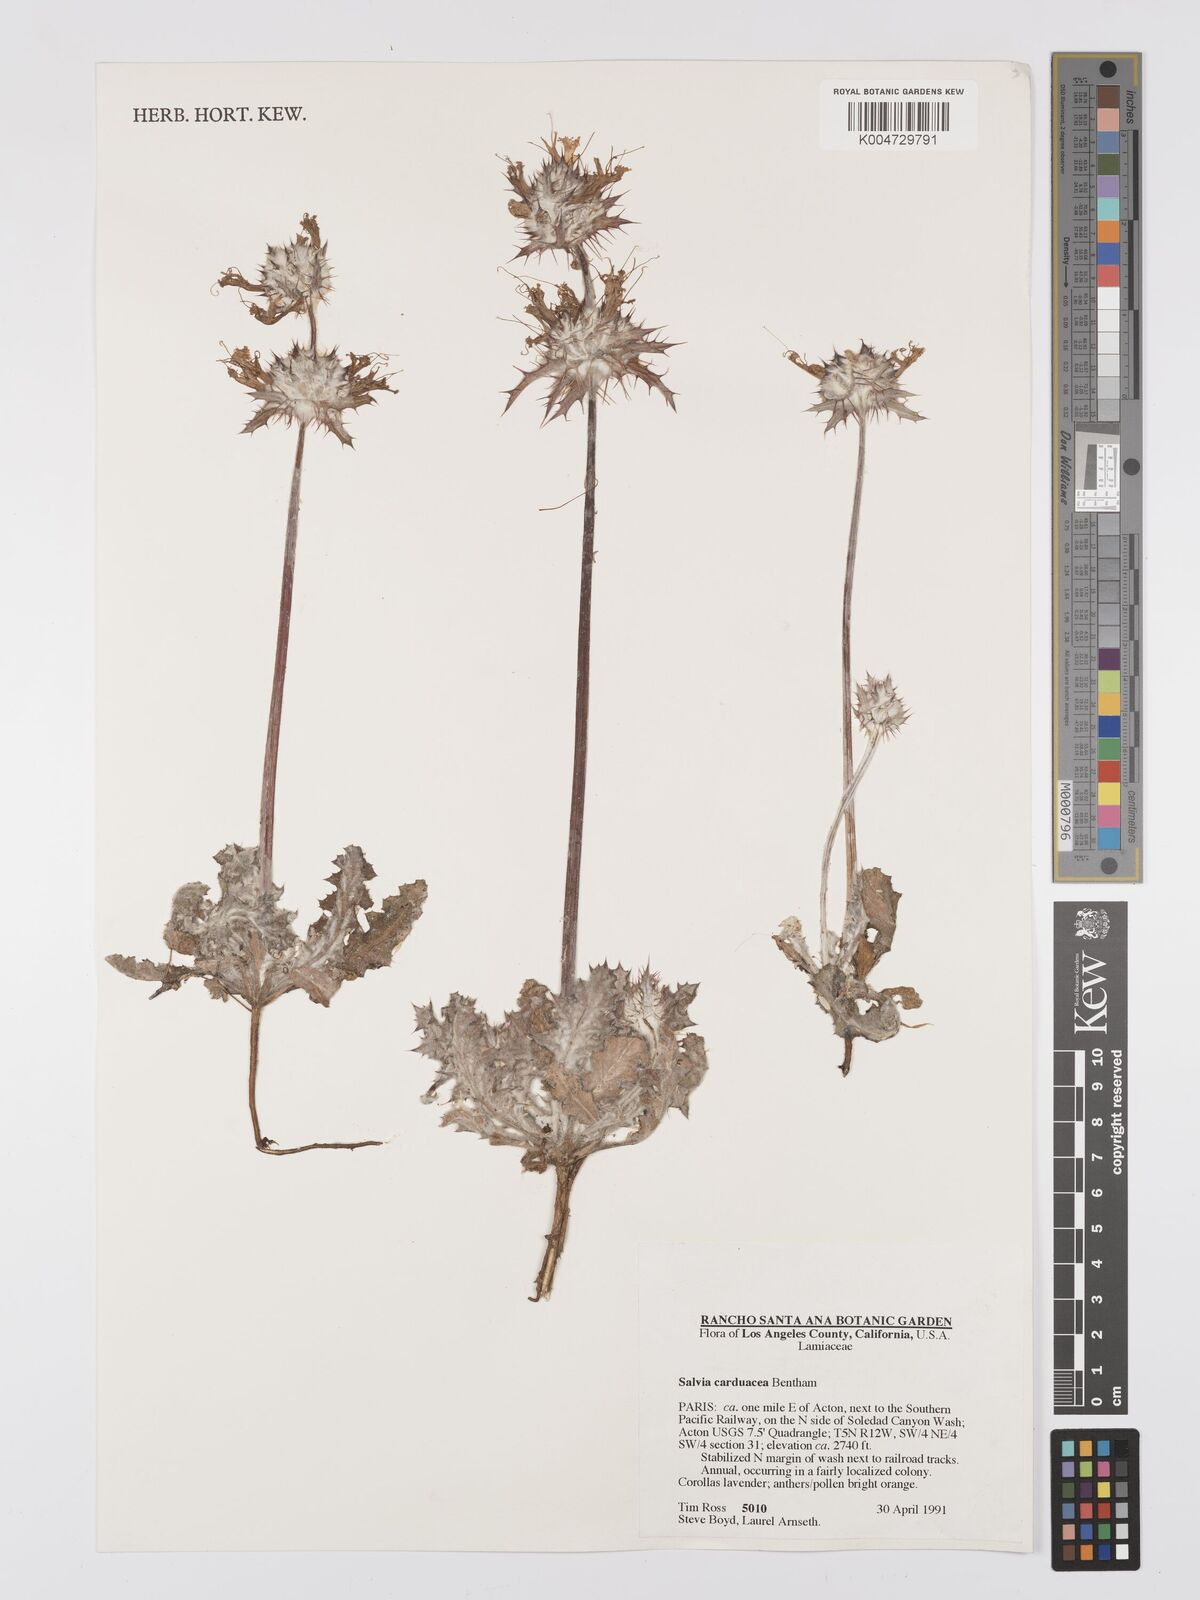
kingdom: Plantae
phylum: Tracheophyta
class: Magnoliopsida
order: Lamiales
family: Lamiaceae
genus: Salvia
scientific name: Salvia carduacea
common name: Thistle sage
